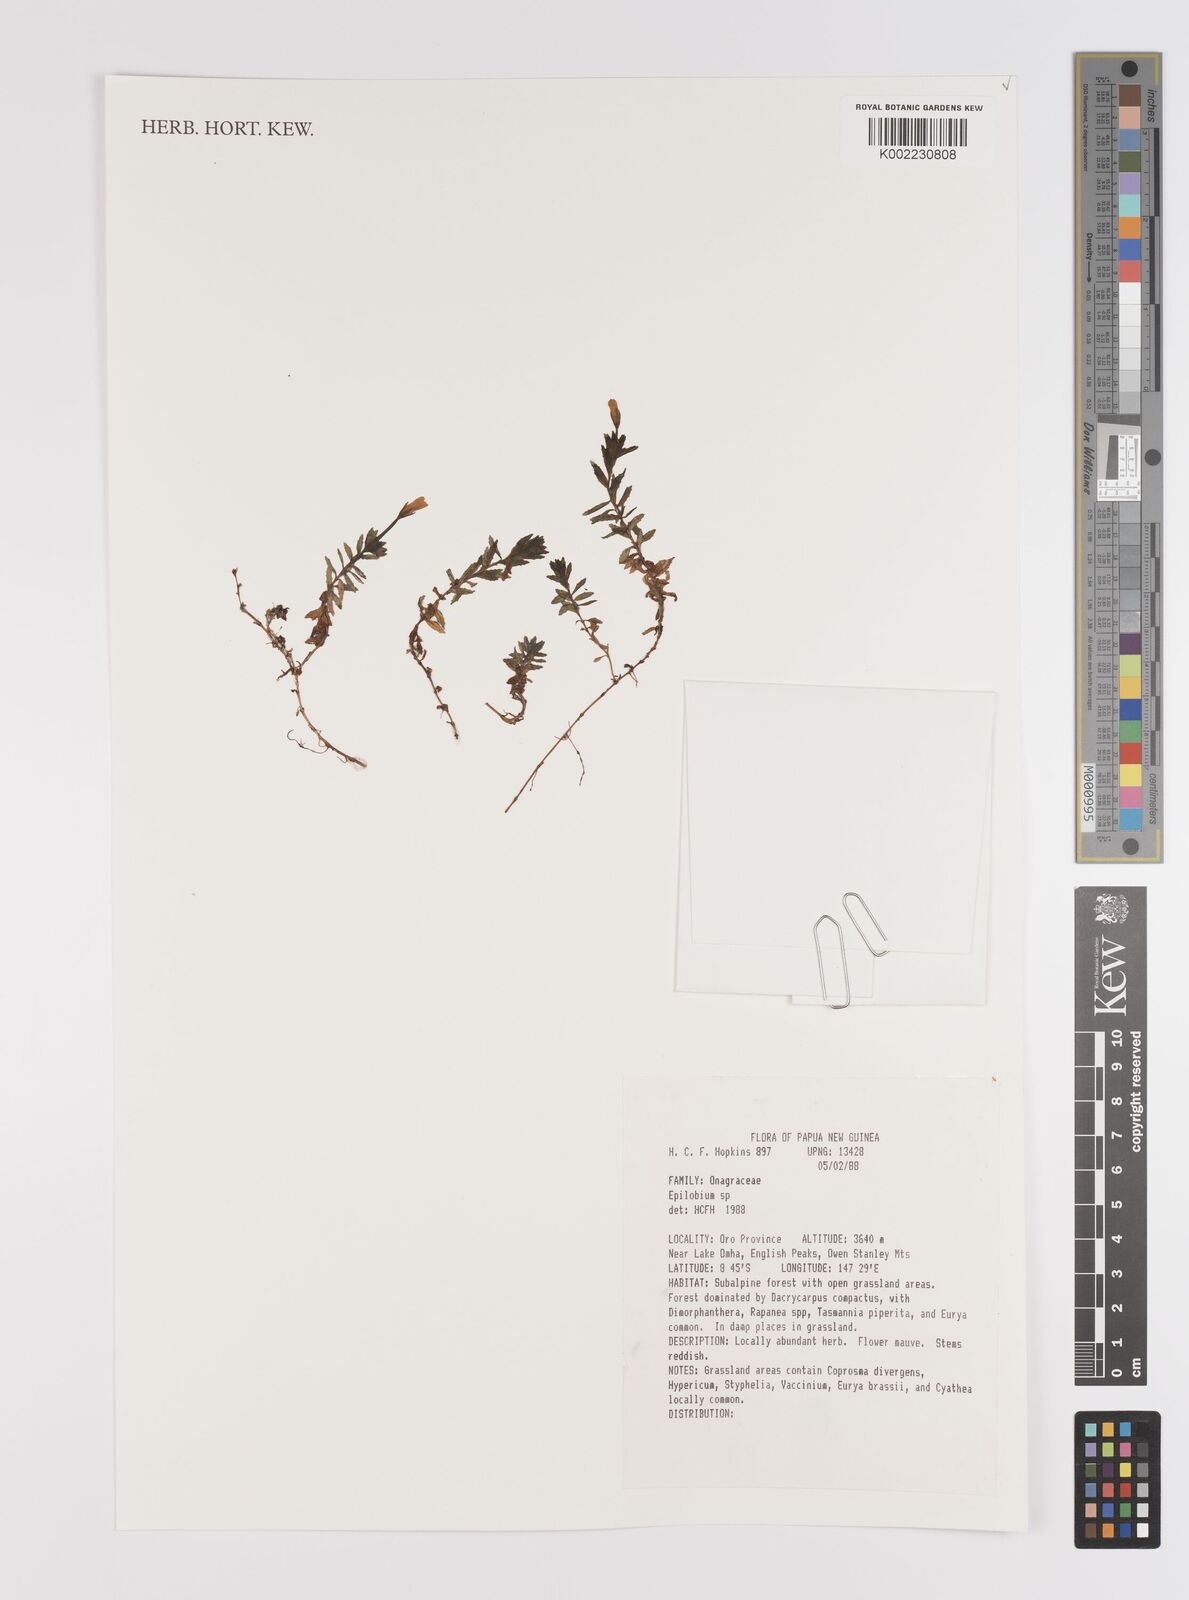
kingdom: Plantae
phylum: Tracheophyta
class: Magnoliopsida
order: Myrtales
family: Onagraceae
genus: Epilobium
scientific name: Epilobium
